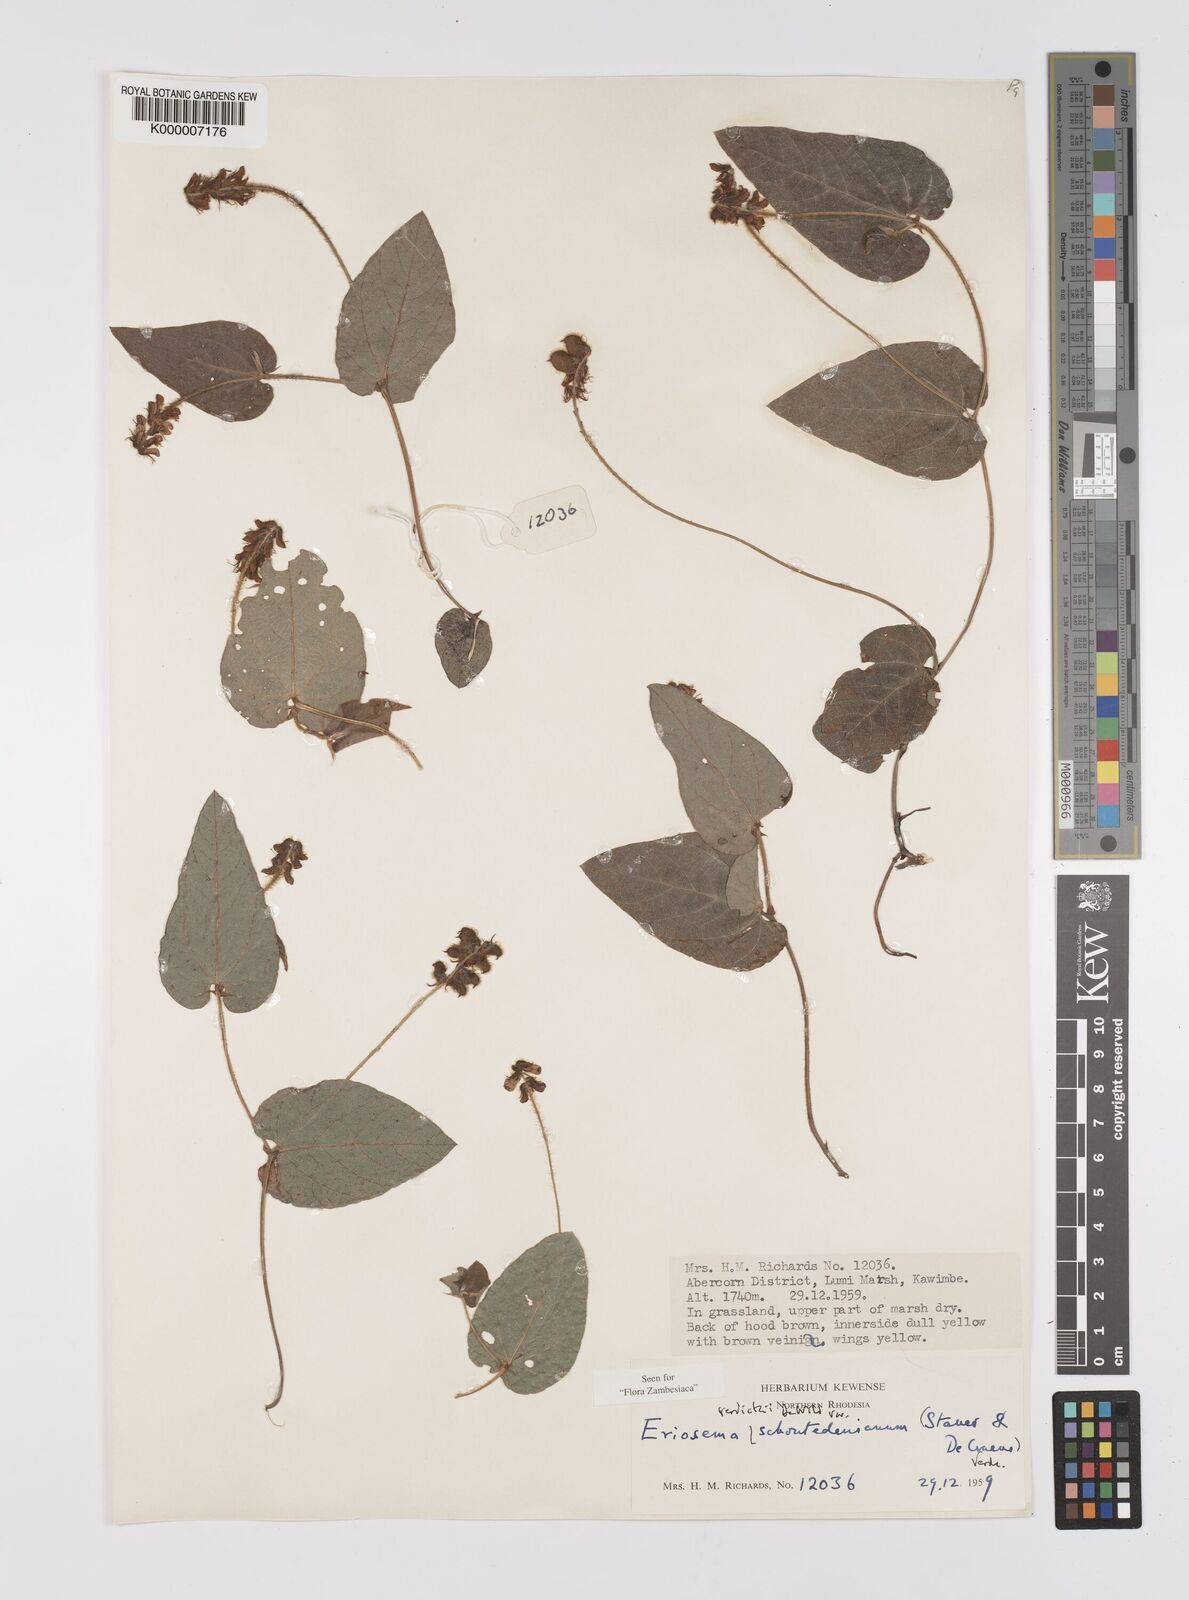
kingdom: Plantae
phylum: Tracheophyta
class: Magnoliopsida
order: Fabales
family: Fabaceae
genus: Eriosema
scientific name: Eriosema verdickii
